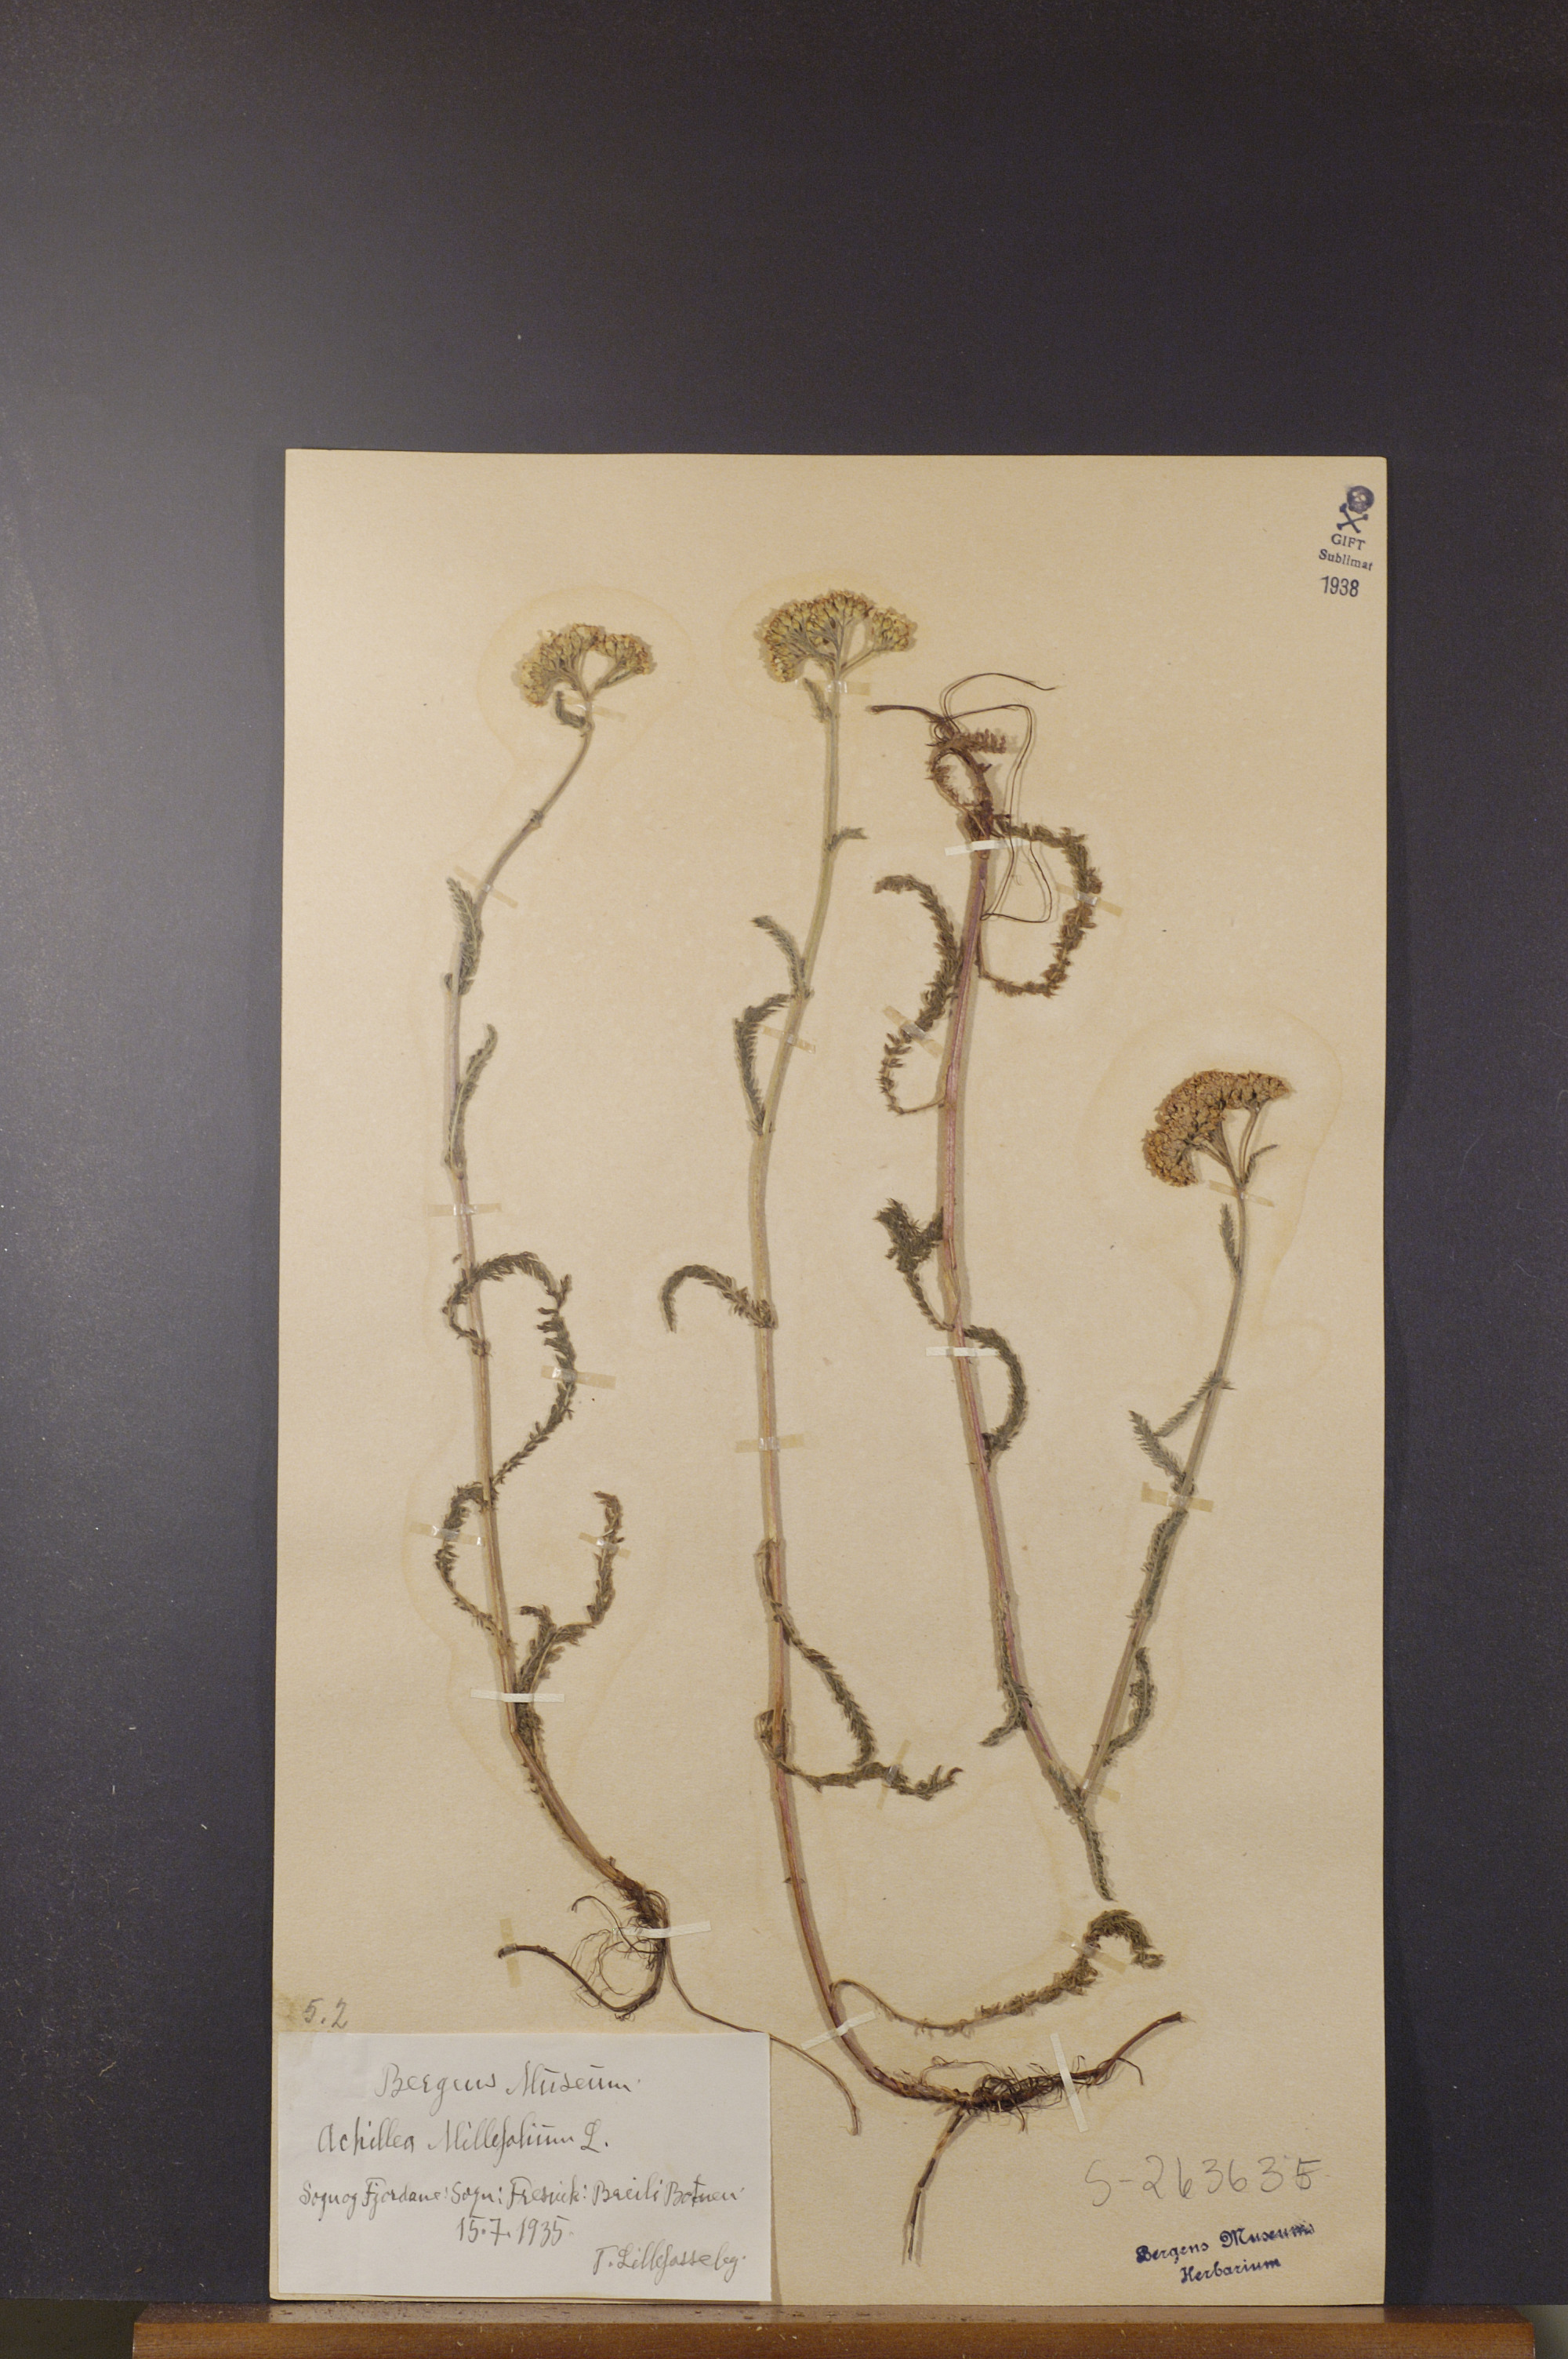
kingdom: Plantae
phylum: Tracheophyta
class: Magnoliopsida
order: Asterales
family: Asteraceae
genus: Achillea
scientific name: Achillea millefolium
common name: Yarrow
